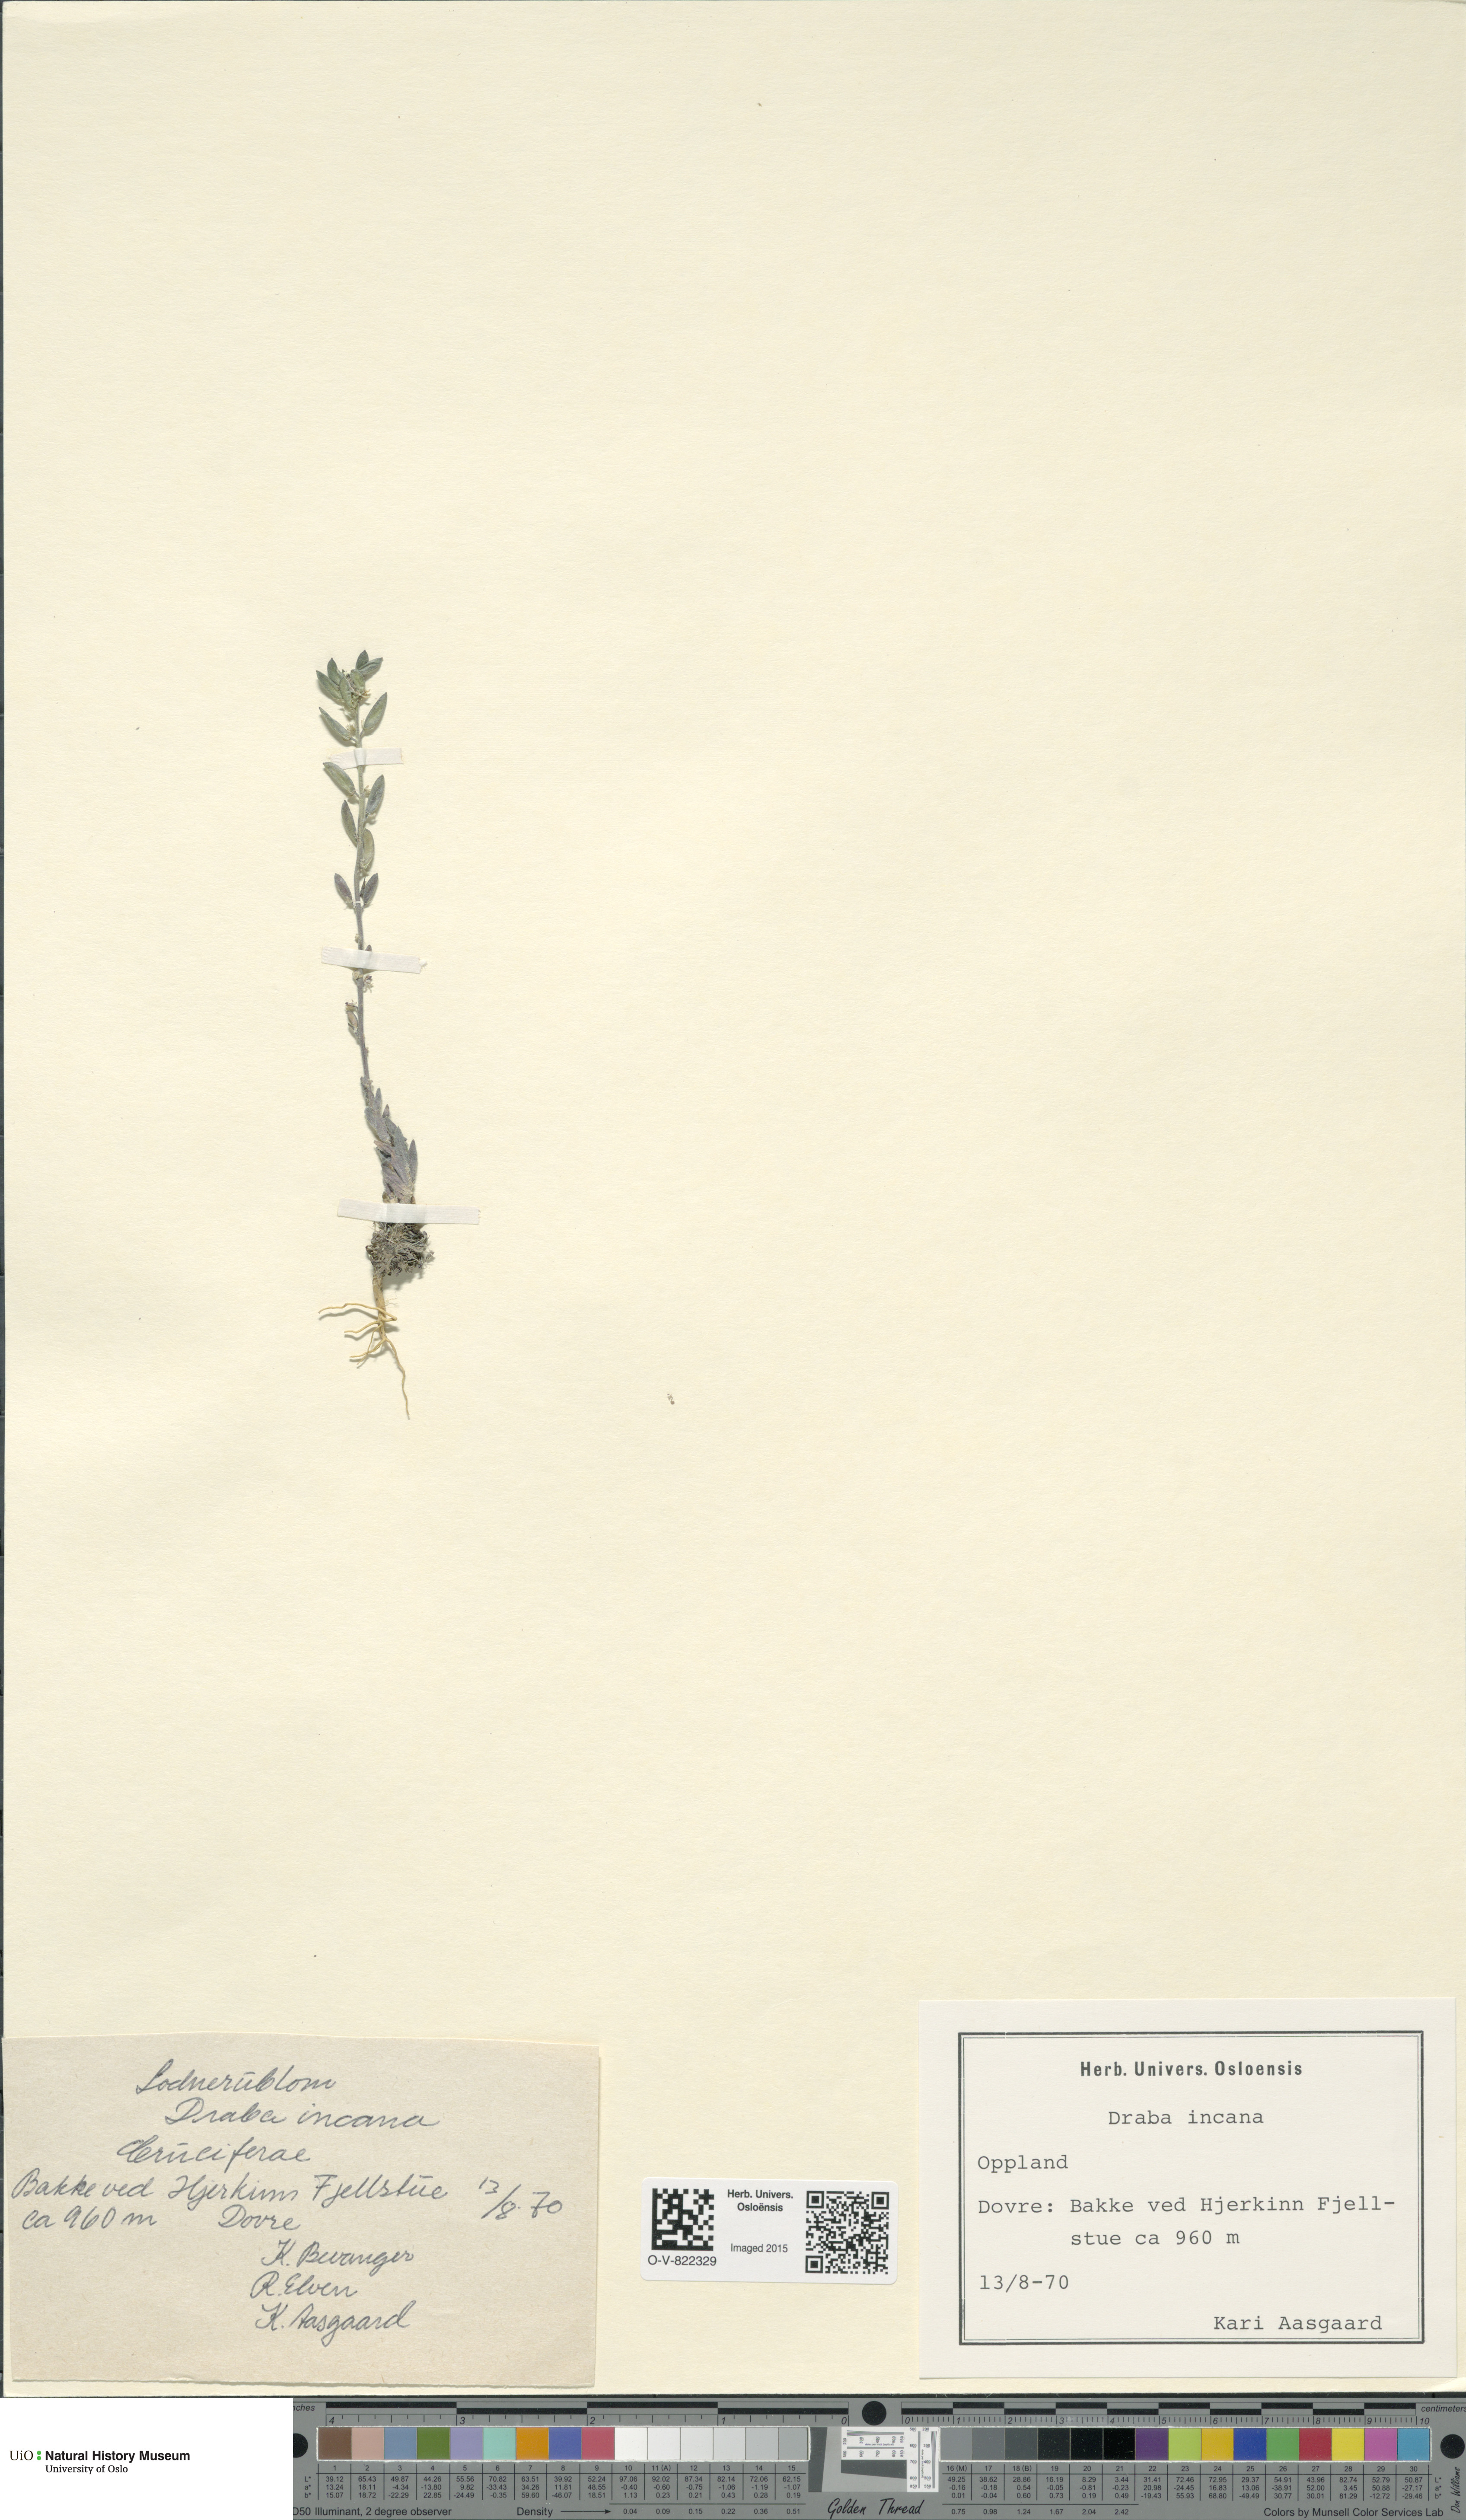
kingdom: Plantae
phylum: Tracheophyta
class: Magnoliopsida
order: Brassicales
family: Brassicaceae
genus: Draba
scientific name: Draba incana
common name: Hoary whitlow-grass
